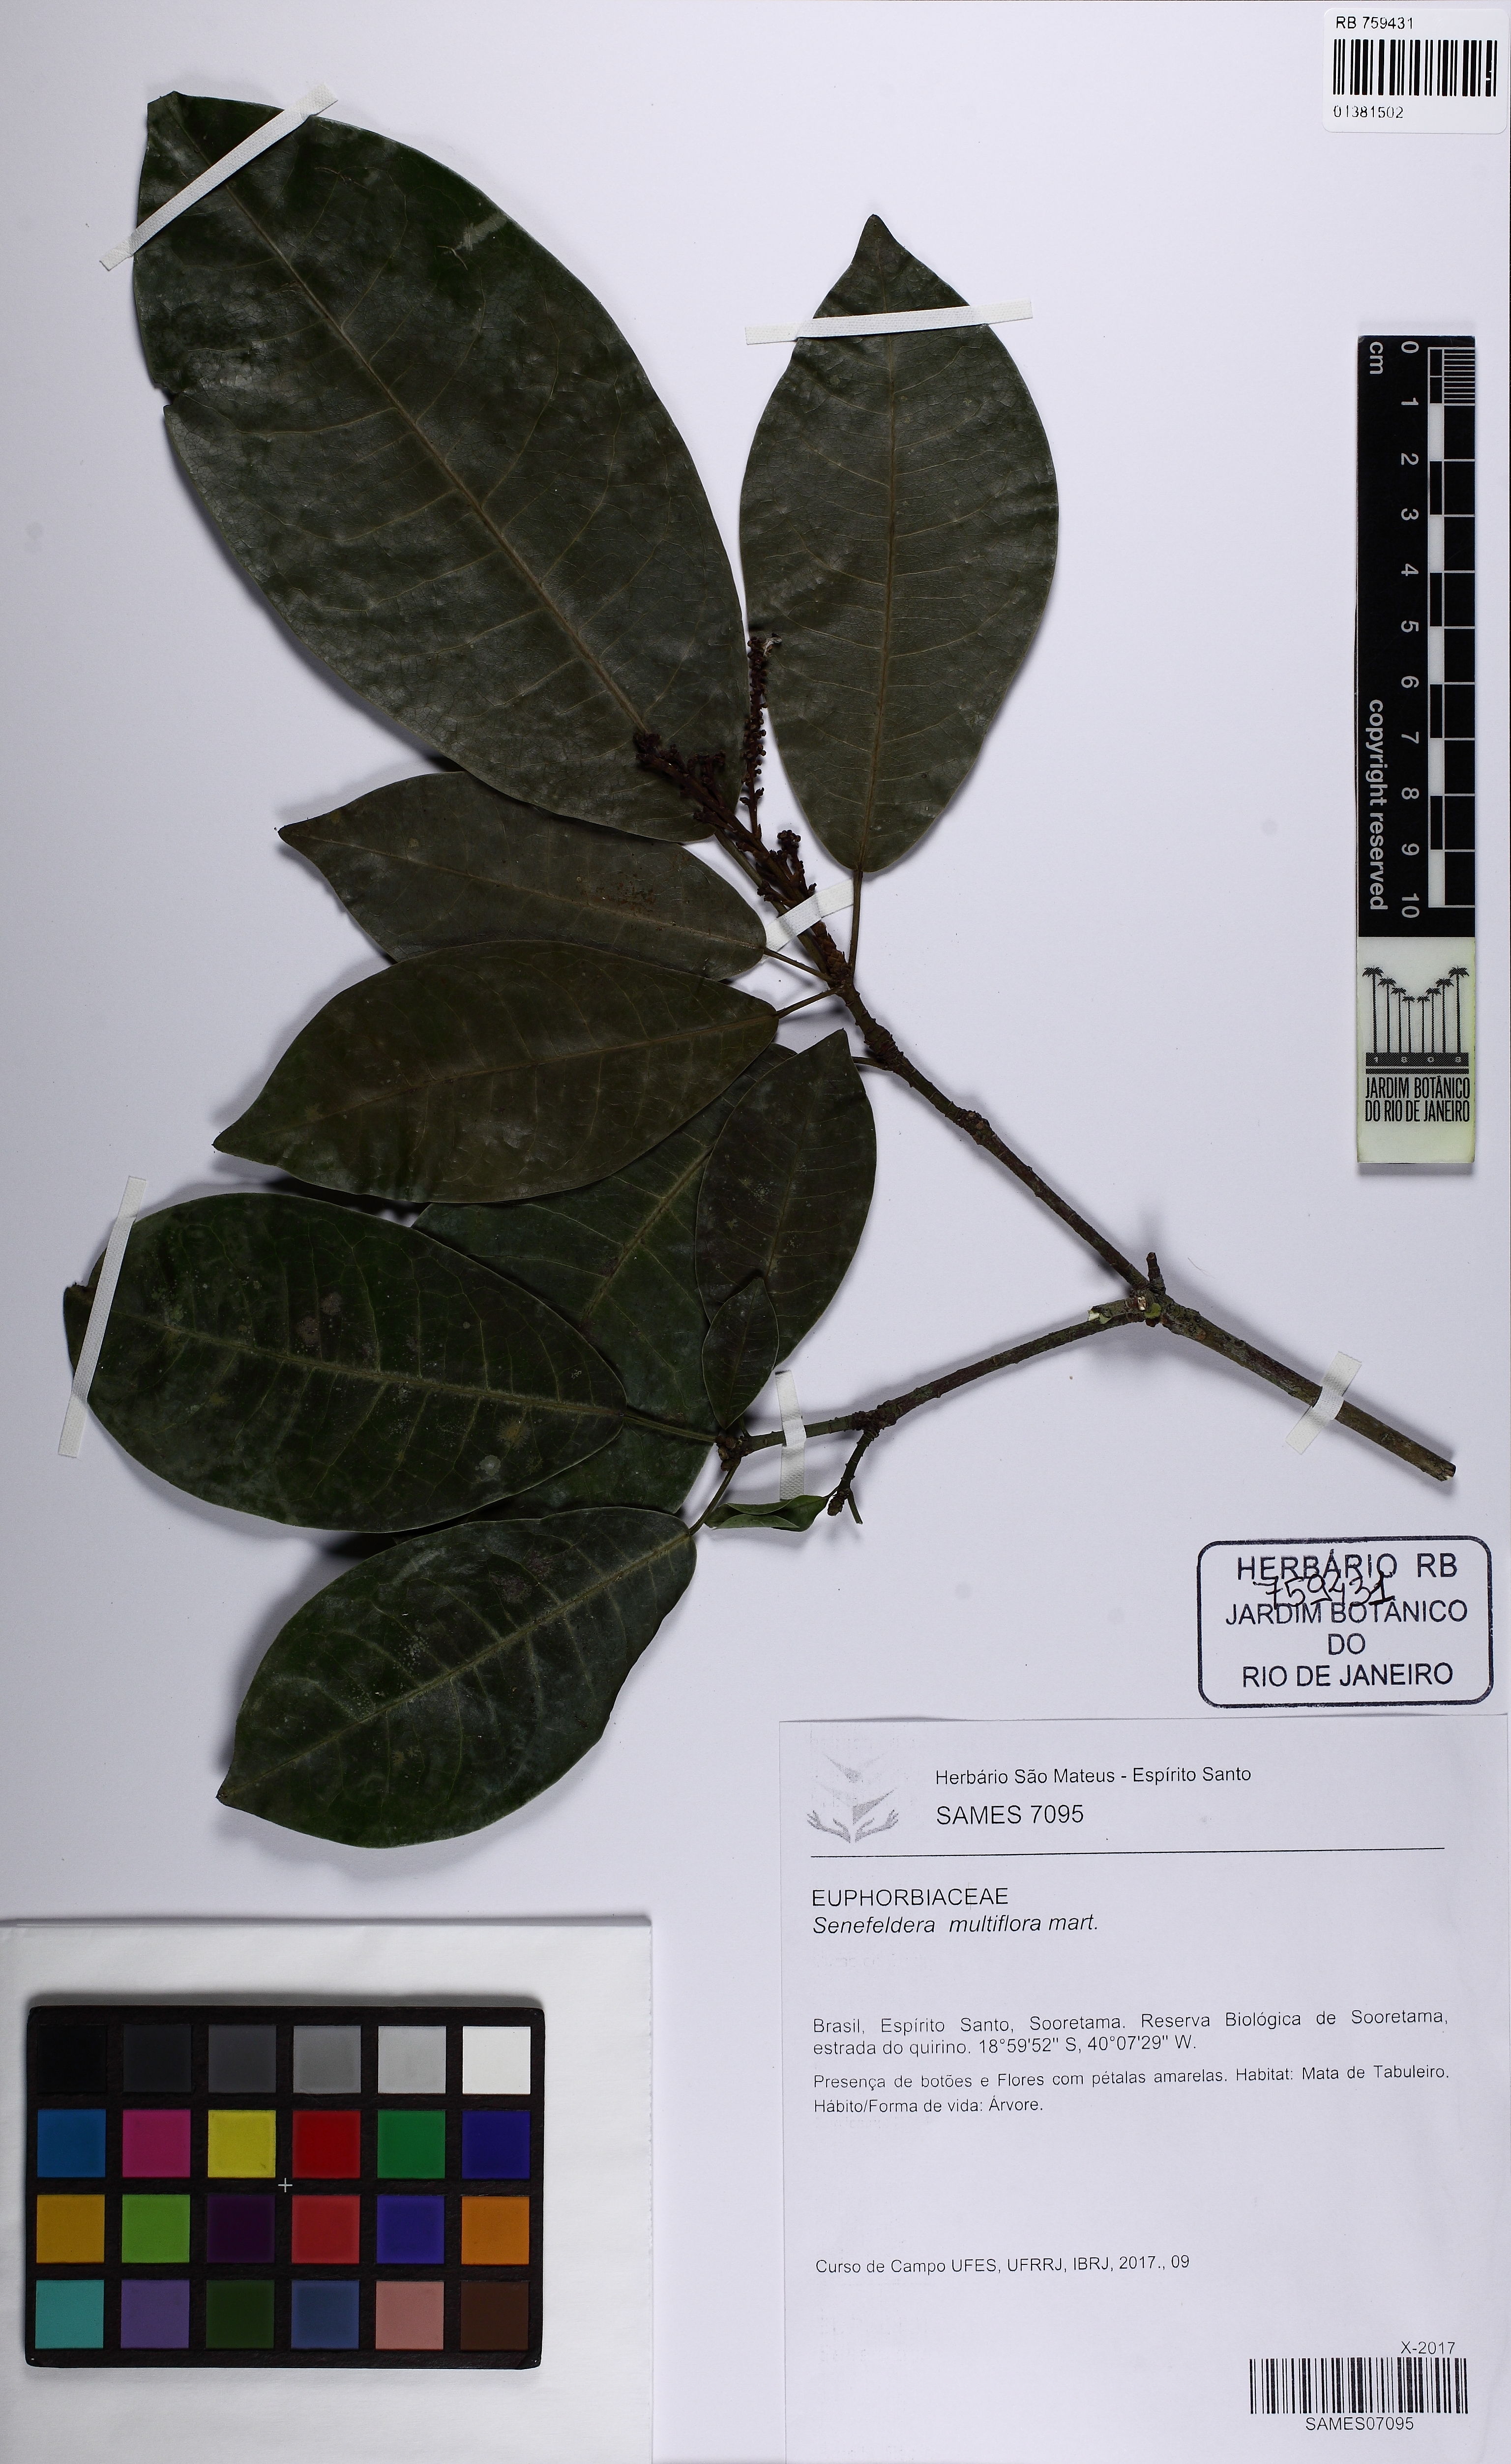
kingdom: Plantae
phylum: Tracheophyta
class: Magnoliopsida
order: Malpighiales
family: Euphorbiaceae
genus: Senefeldera
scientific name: Senefeldera verticillata
